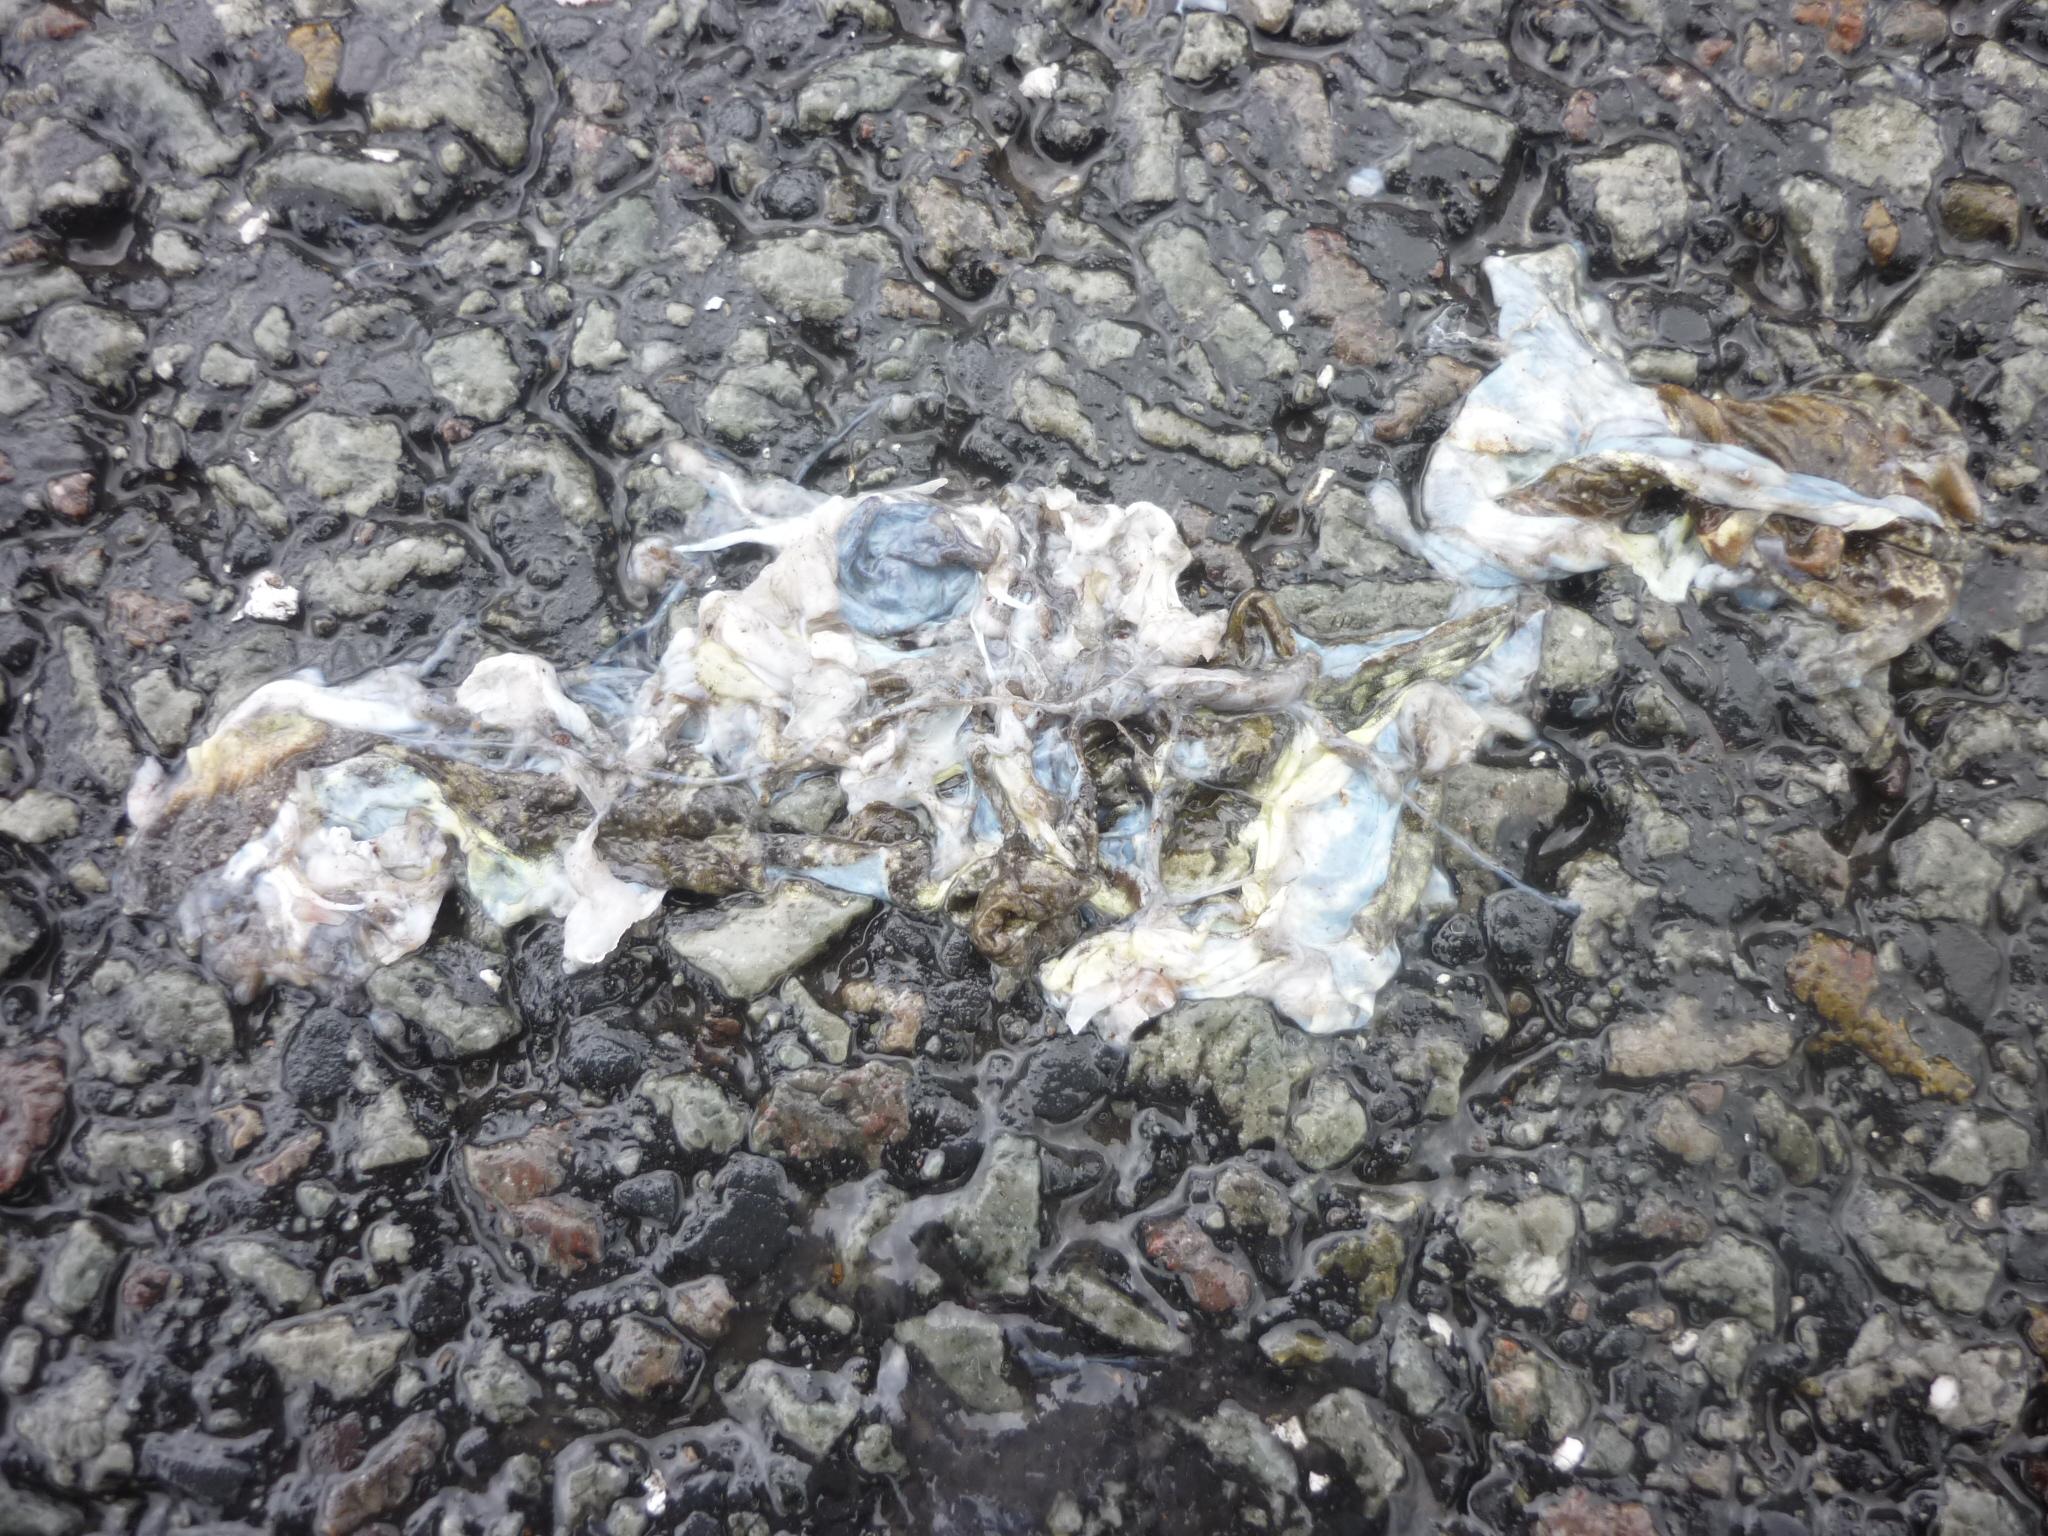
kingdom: Animalia
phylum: Chordata
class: Amphibia
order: Anura
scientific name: Anura
